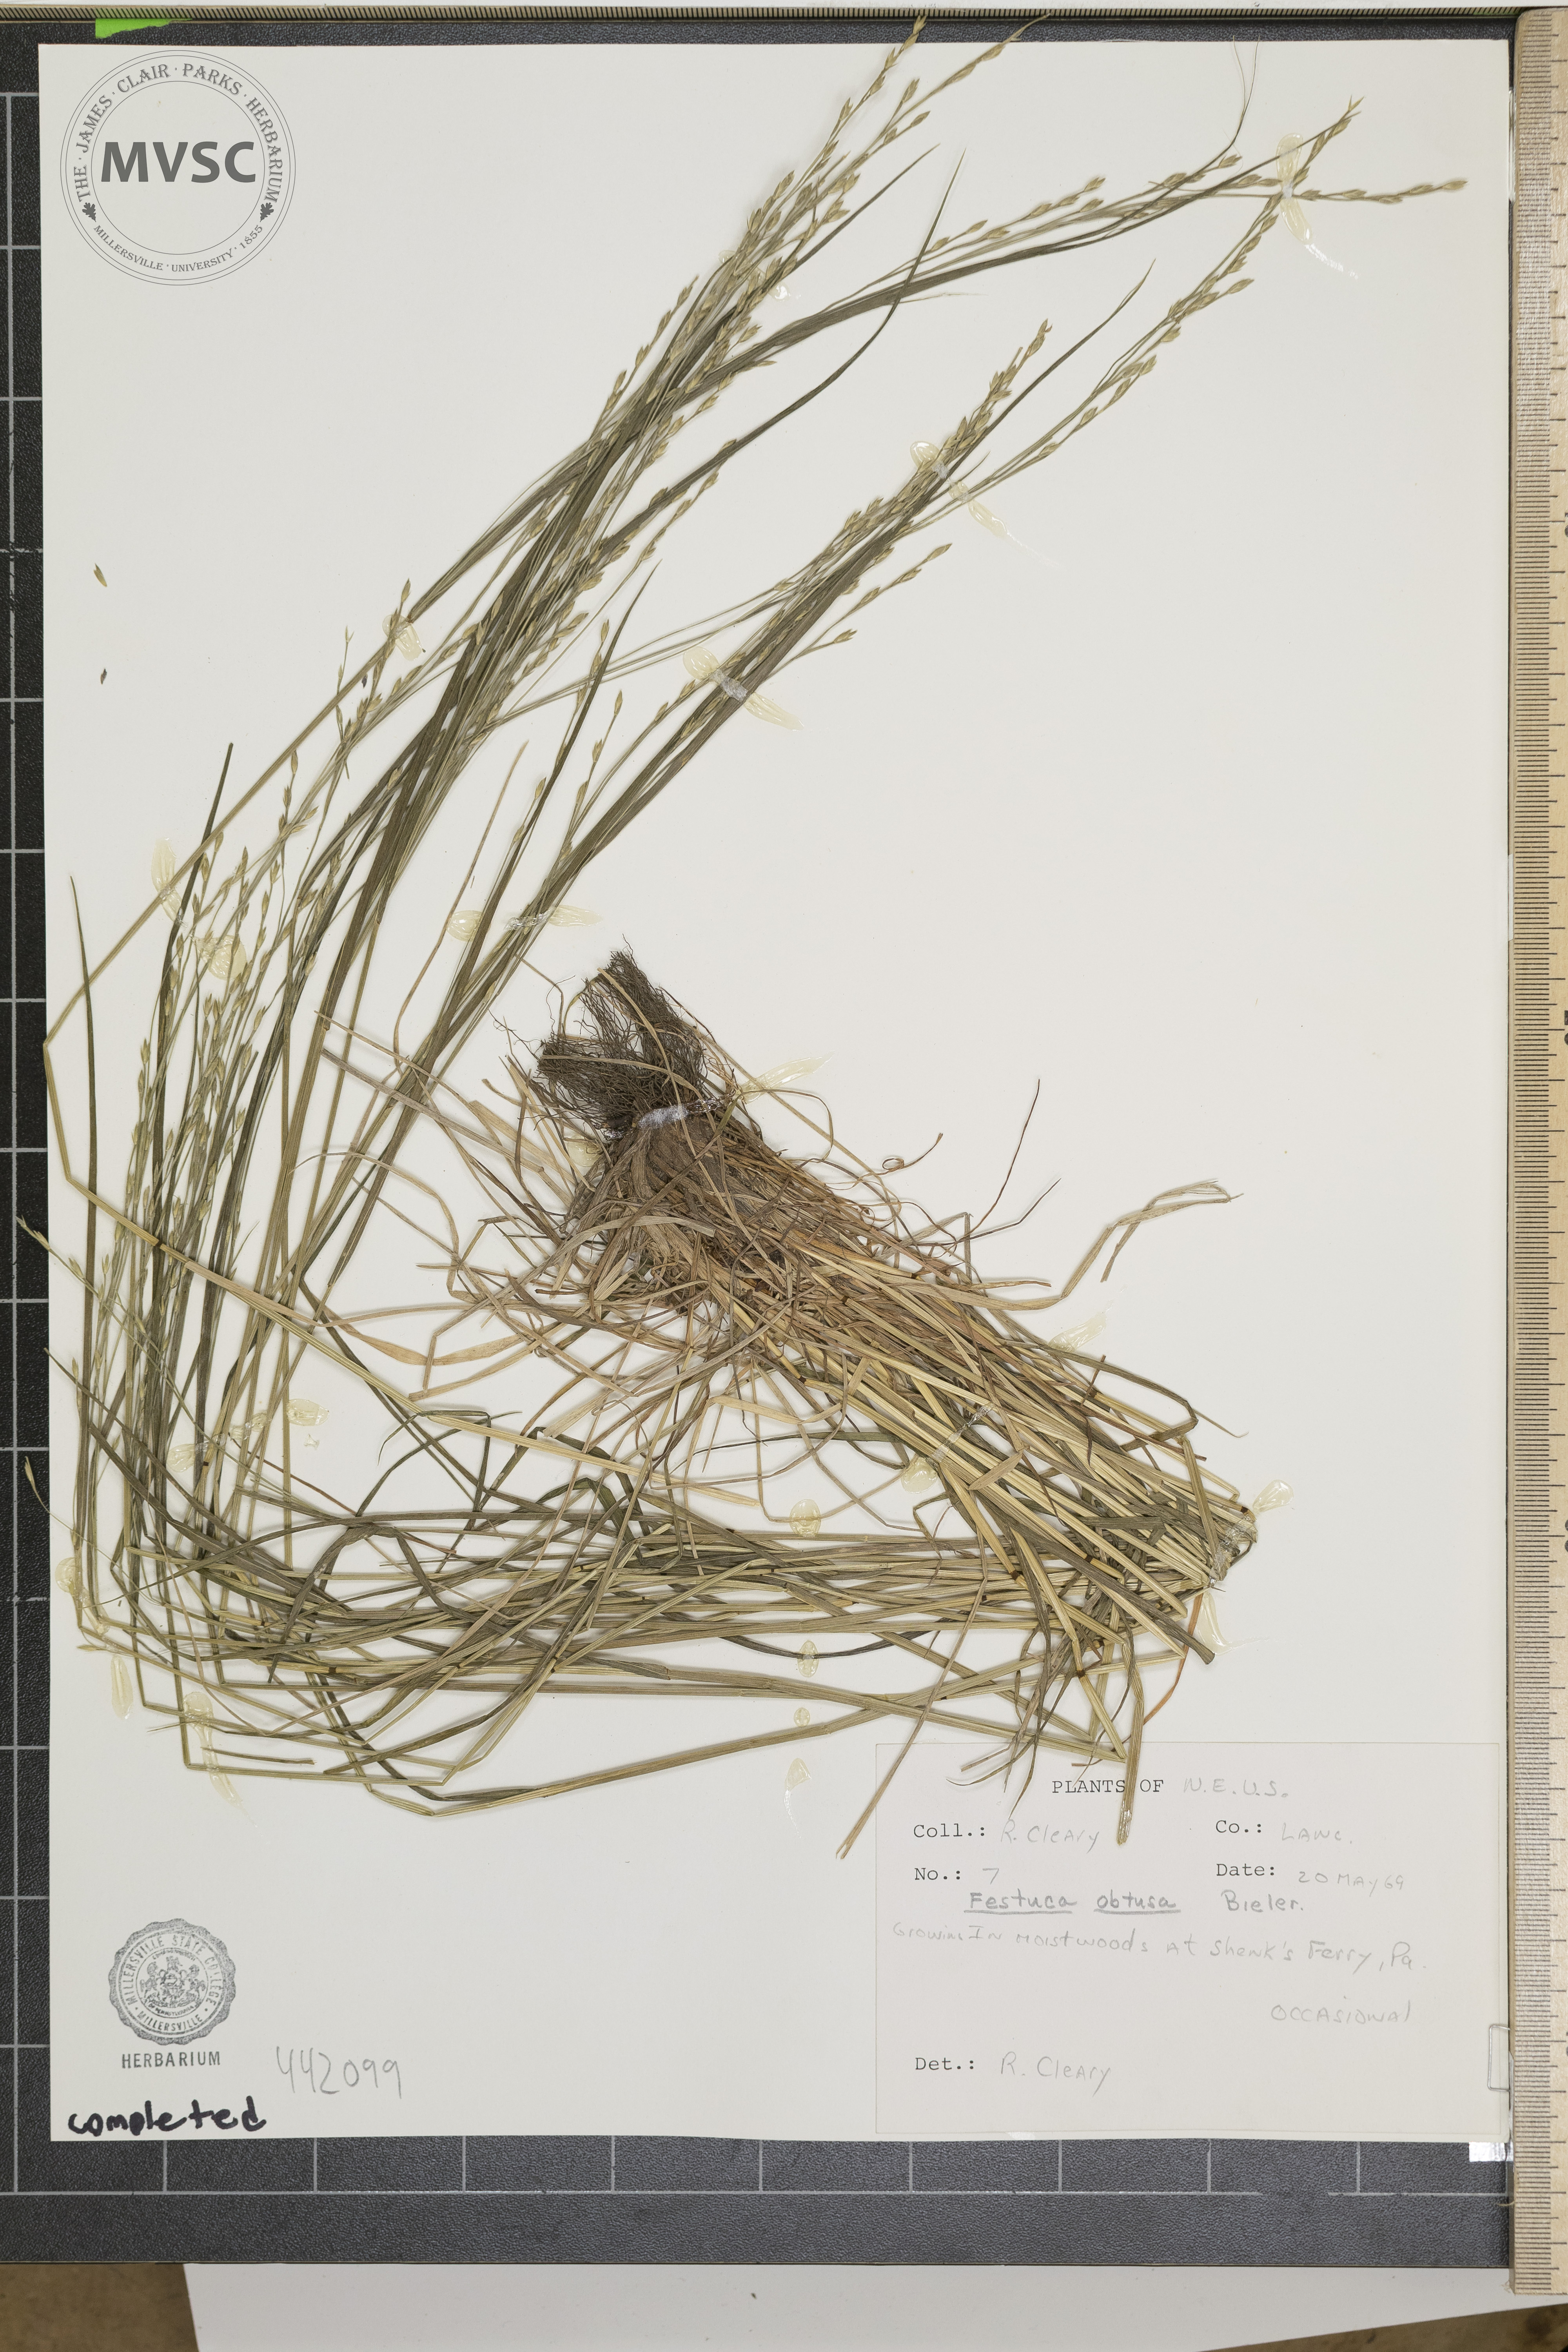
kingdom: Plantae
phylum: Tracheophyta
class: Liliopsida
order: Poales
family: Poaceae
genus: Festuca
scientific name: Festuca subverticillata
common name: Nodding fescue
